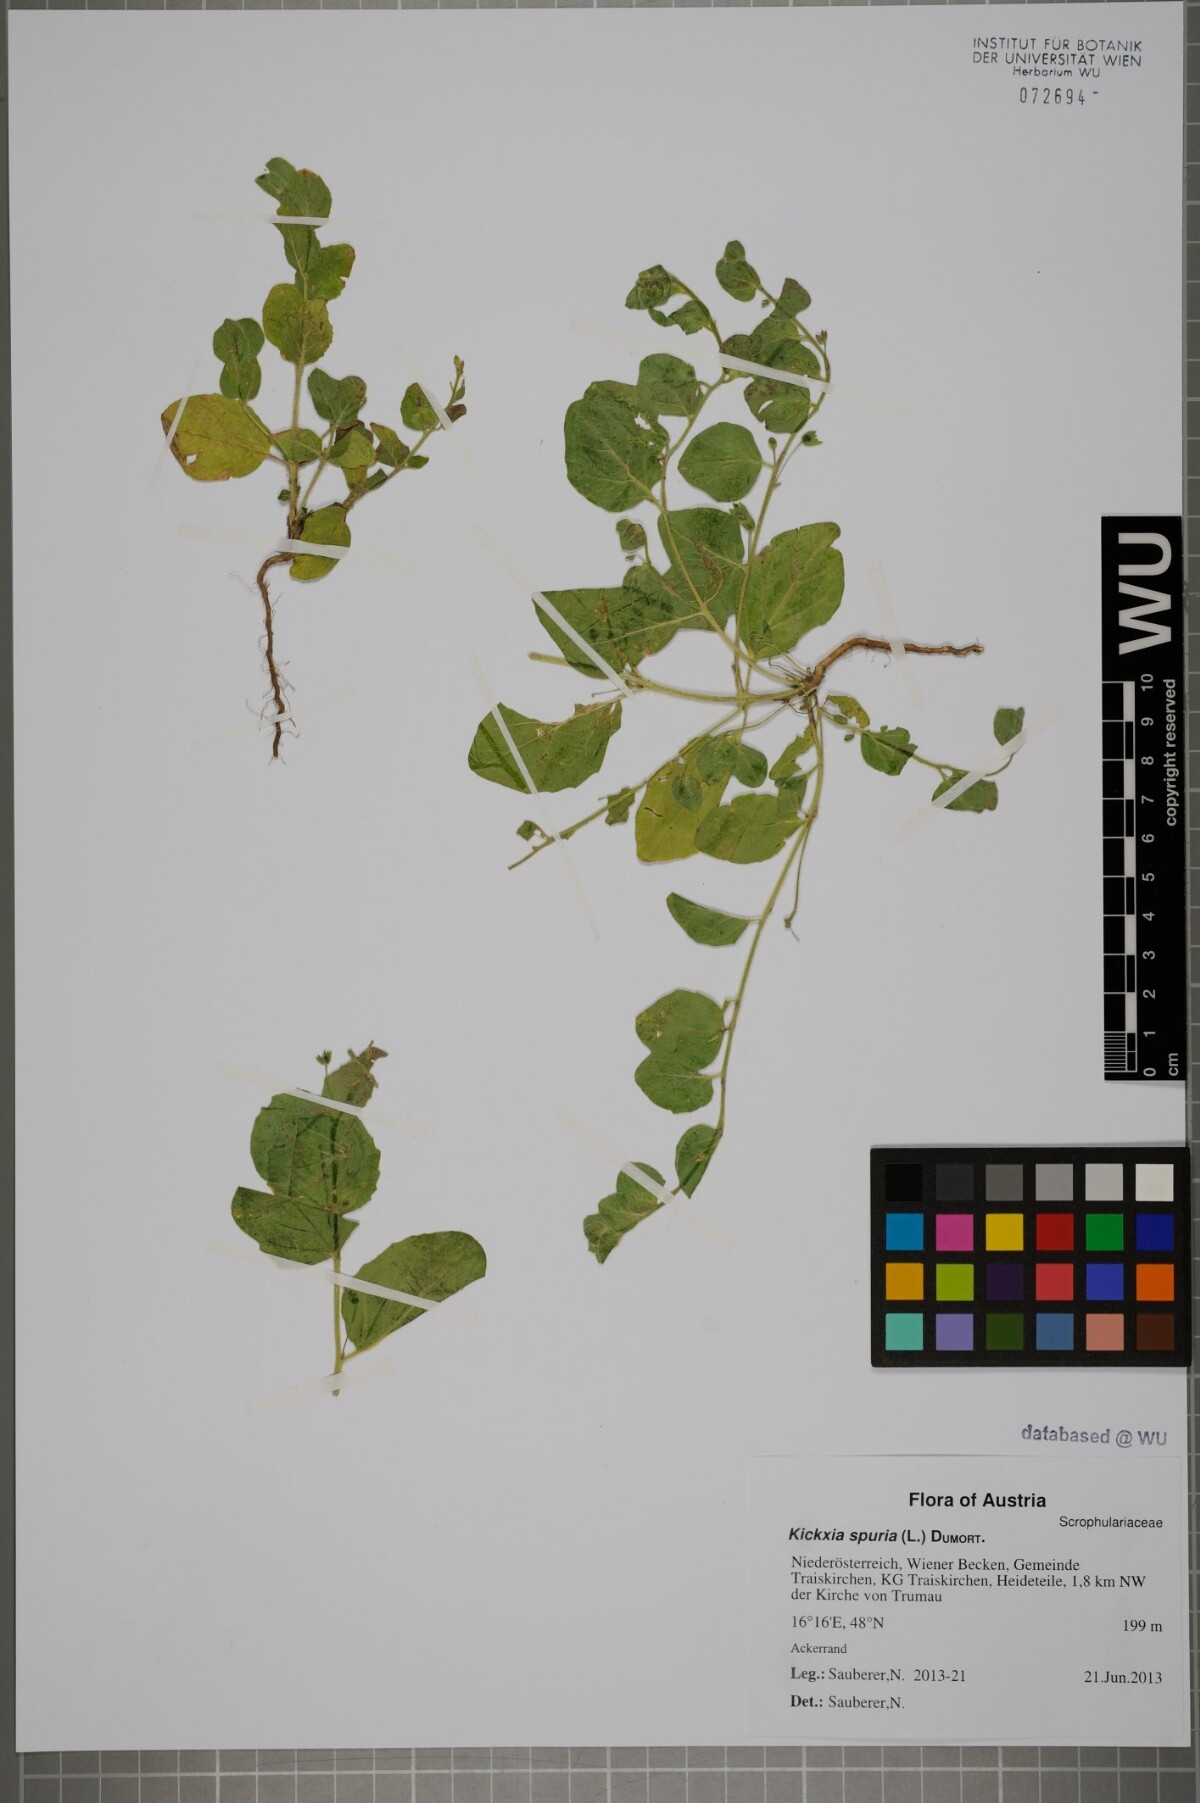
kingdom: Plantae
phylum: Tracheophyta
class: Magnoliopsida
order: Lamiales
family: Plantaginaceae
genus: Kickxia
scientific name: Kickxia spuria
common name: Round-leaved fluellen
